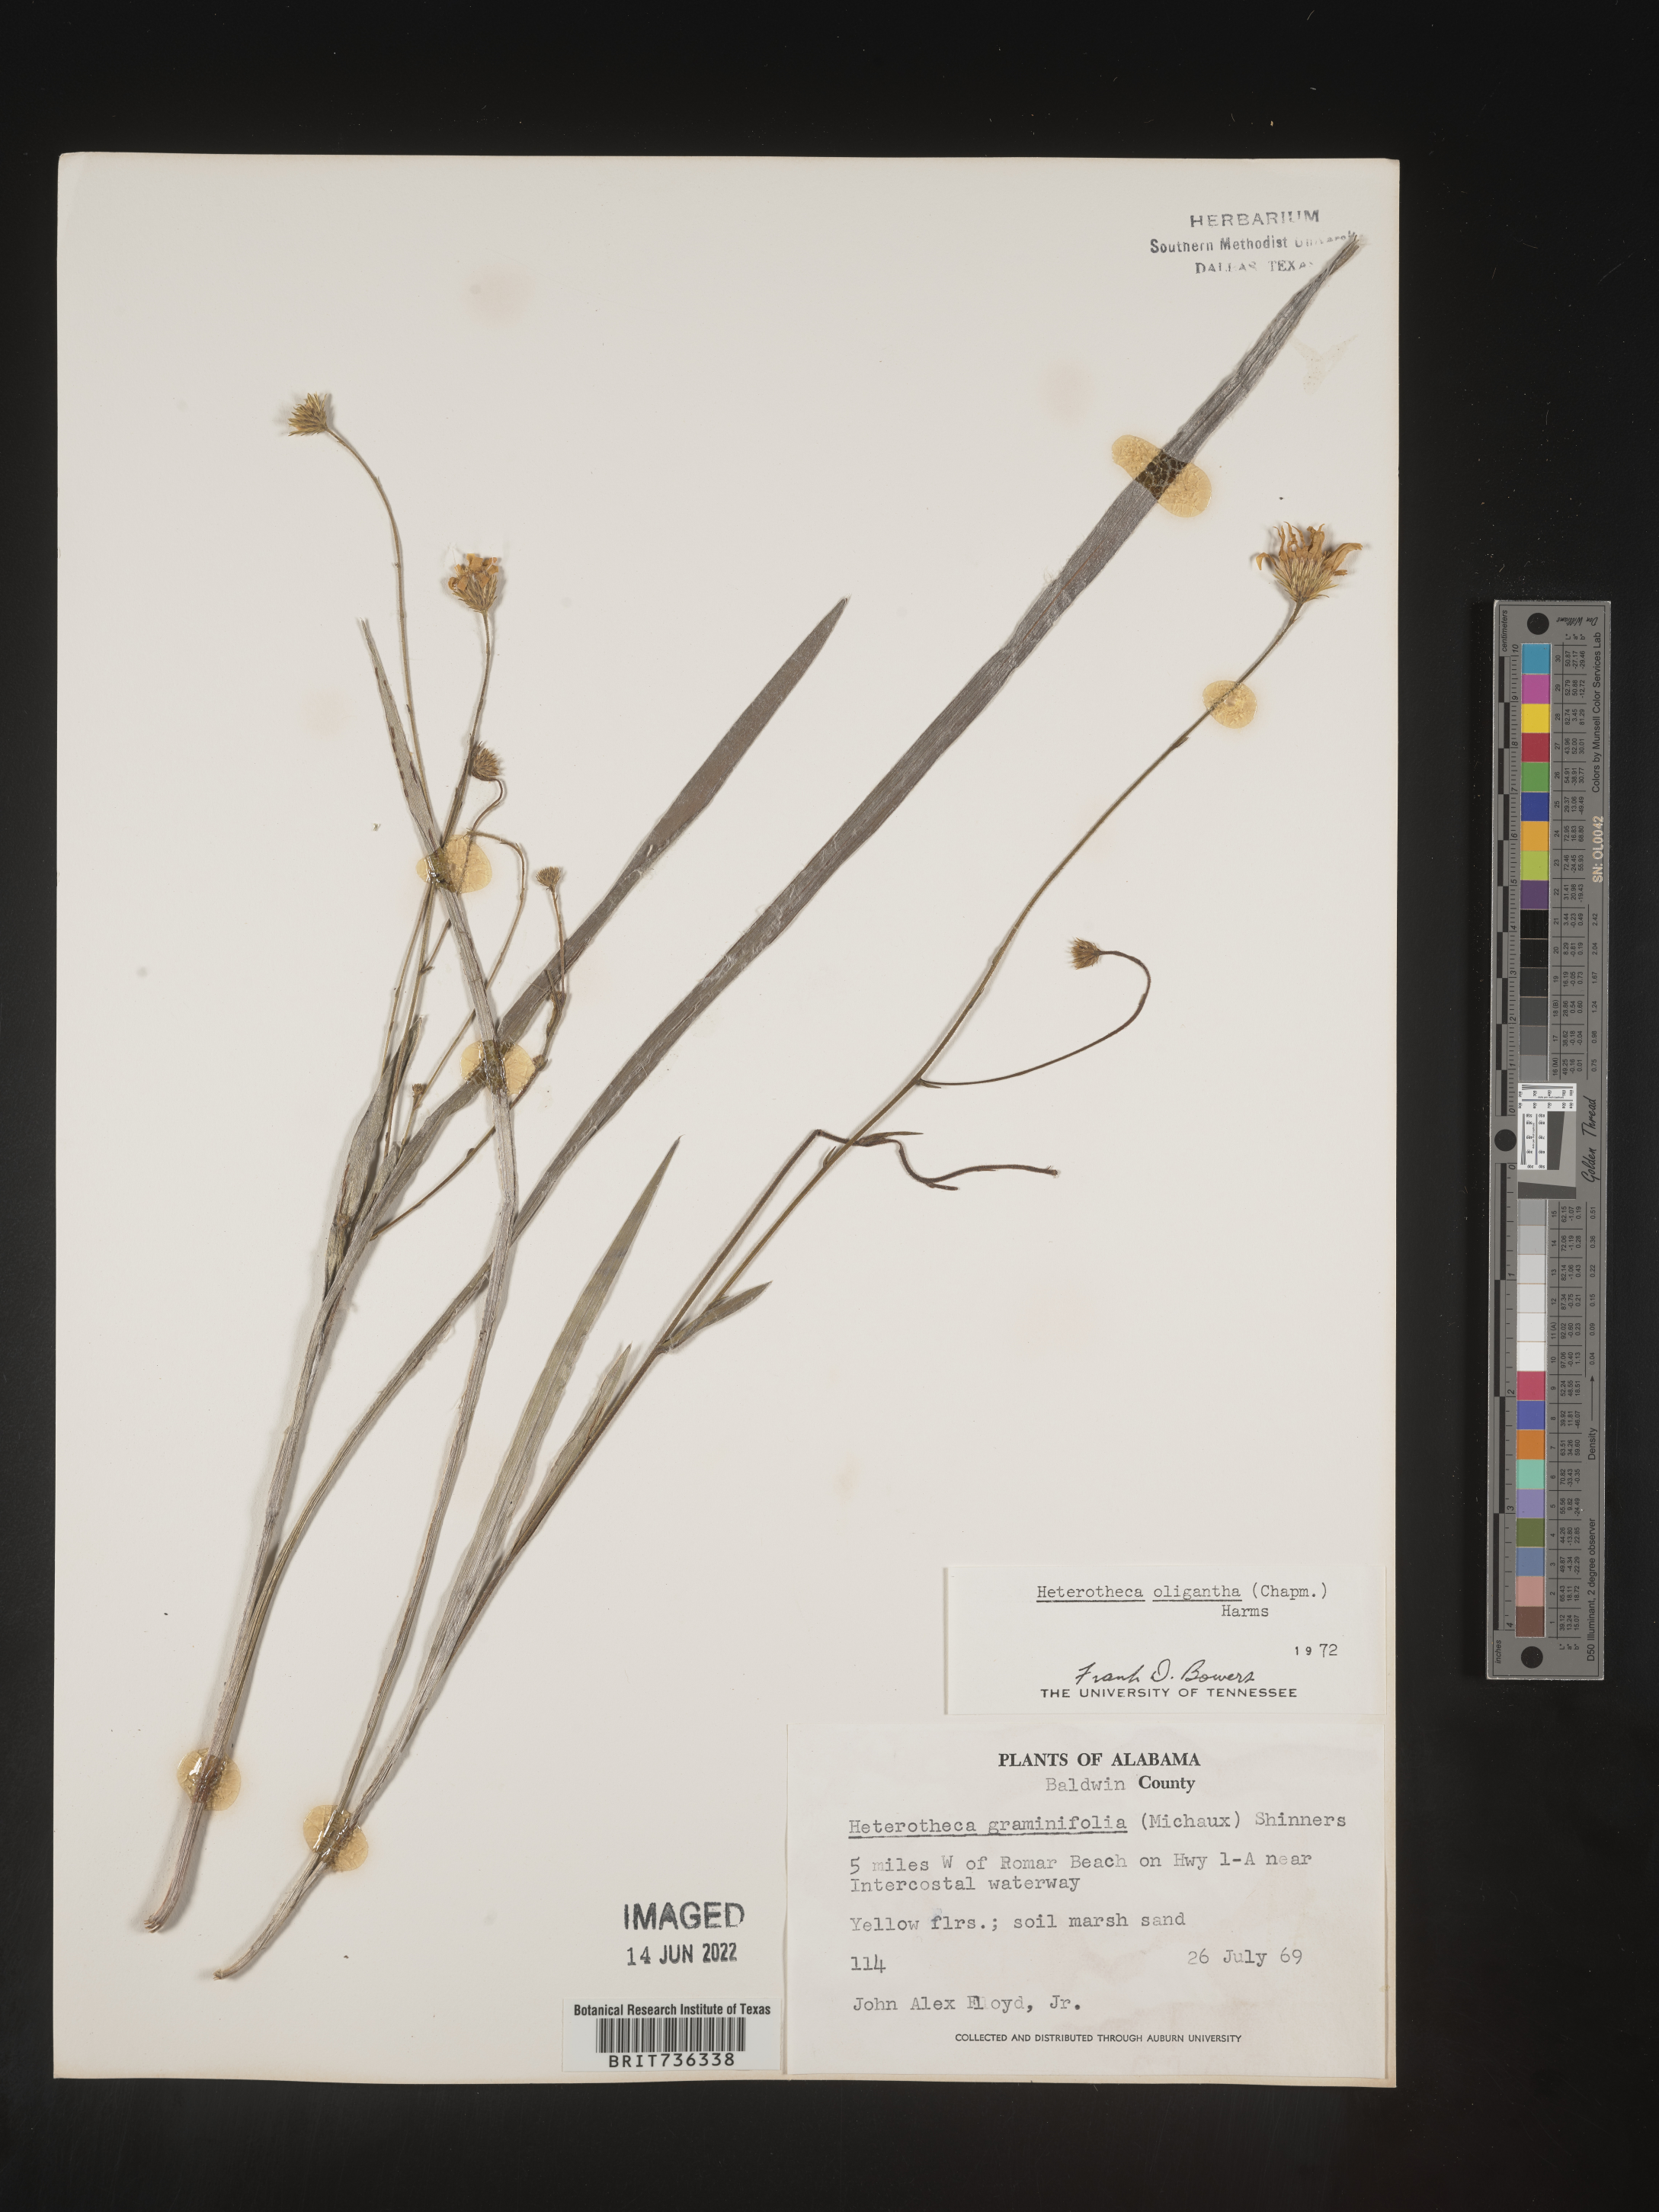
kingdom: Plantae
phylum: Tracheophyta
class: Magnoliopsida
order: Asterales
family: Asteraceae
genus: Pityopsis
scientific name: Pityopsis oligantha
